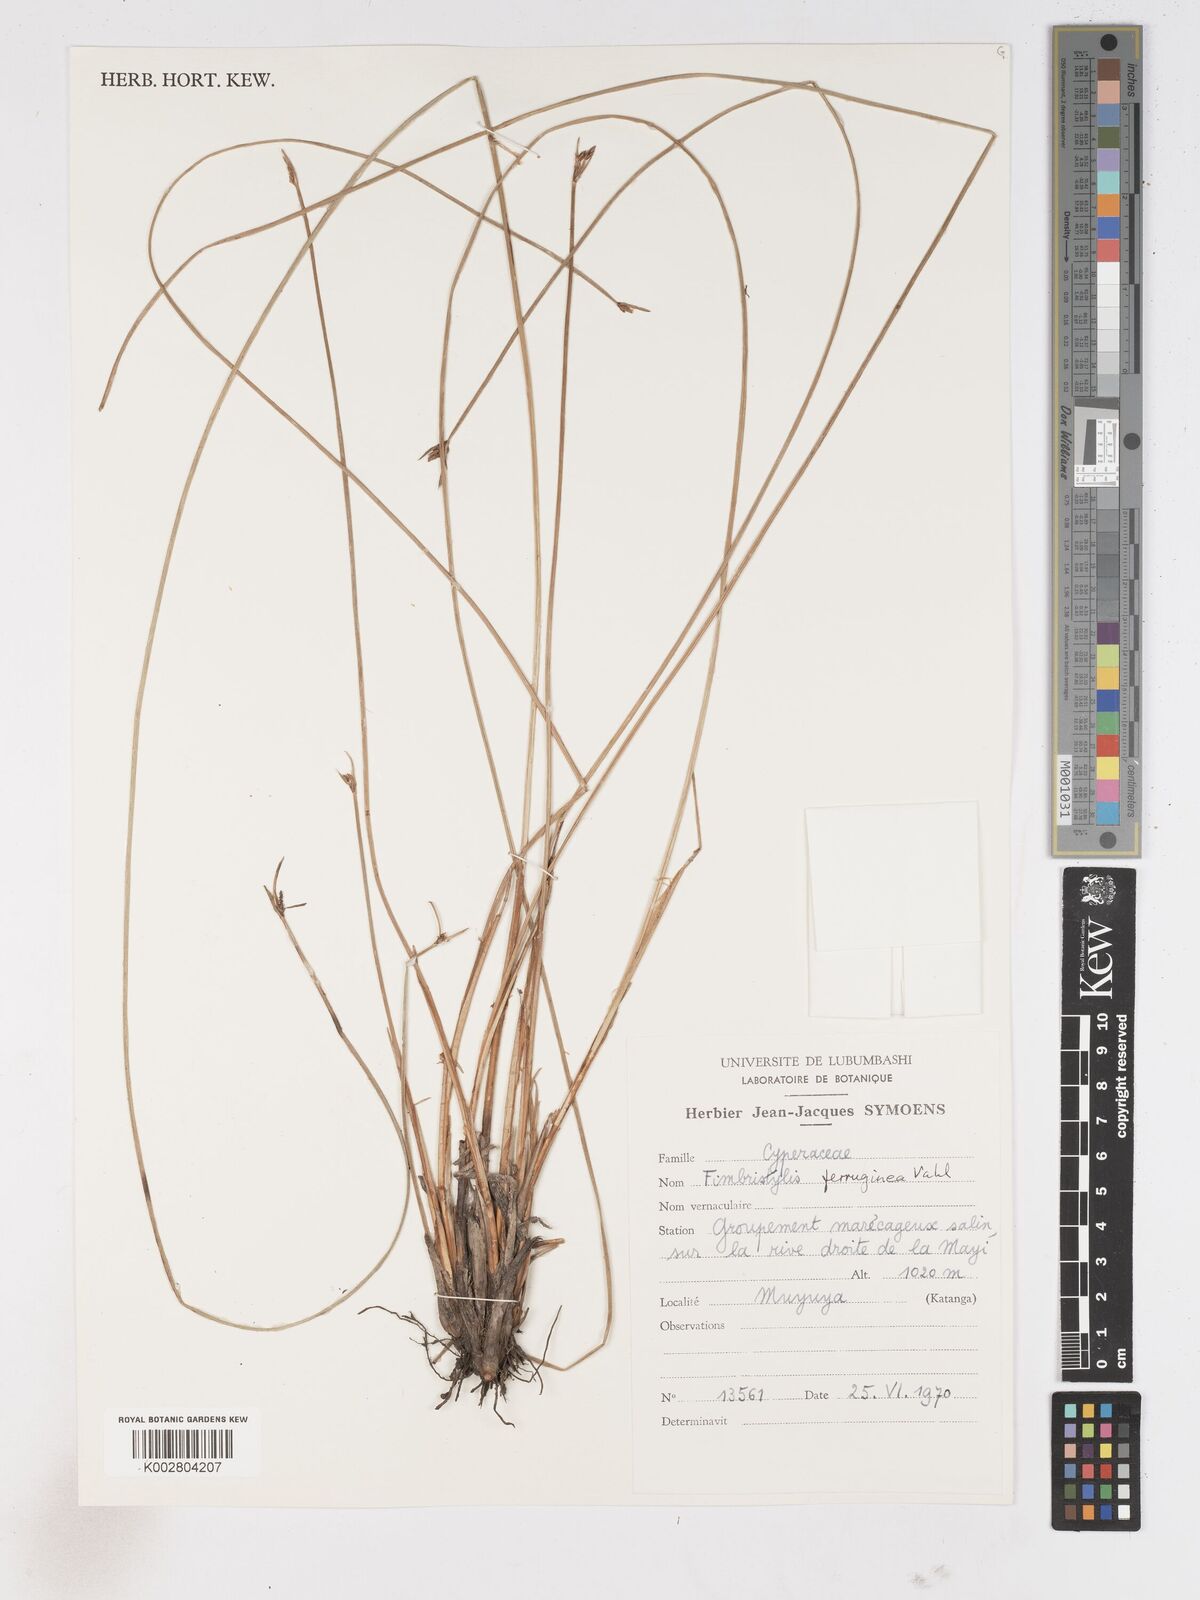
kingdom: Plantae
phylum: Tracheophyta
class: Liliopsida
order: Poales
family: Cyperaceae
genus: Fimbristylis
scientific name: Fimbristylis ferruginea
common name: West indian fimbry
